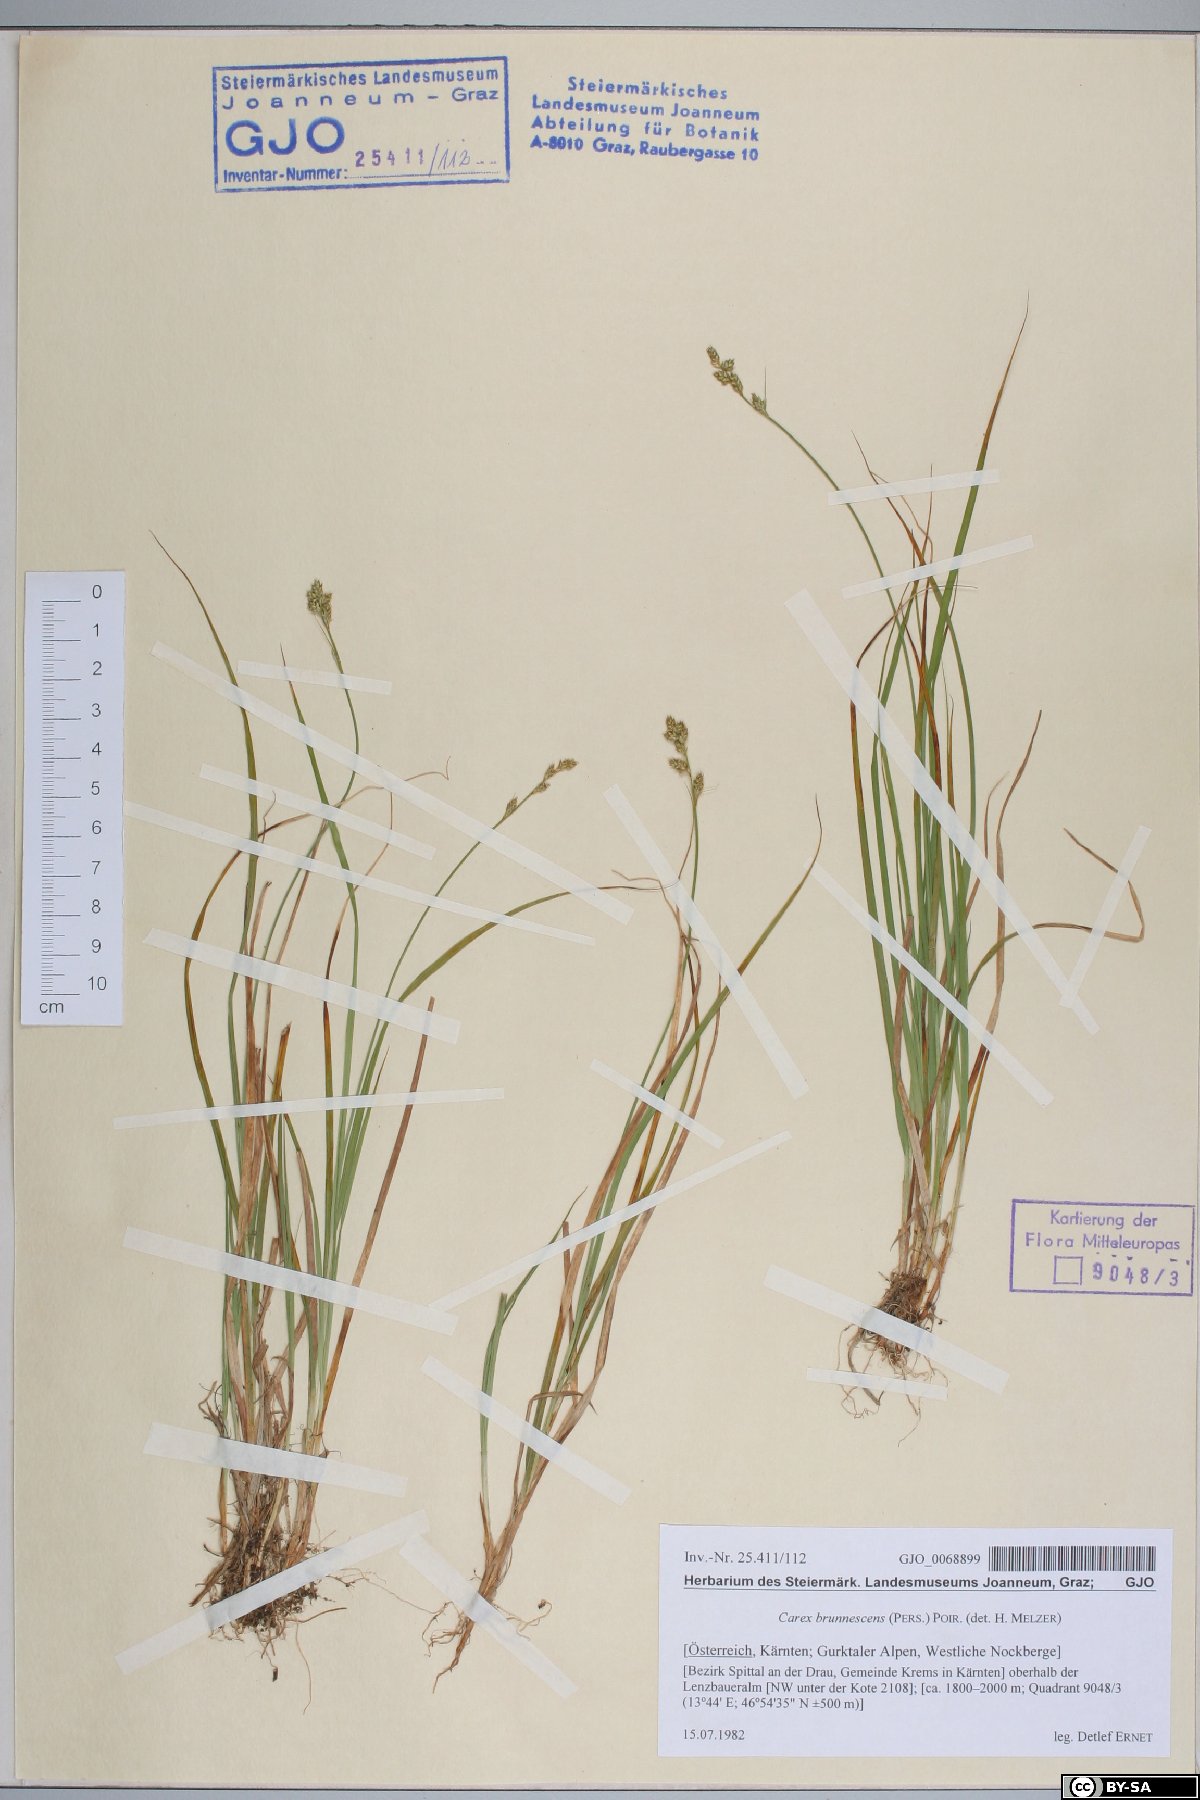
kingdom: Plantae
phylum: Tracheophyta
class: Liliopsida
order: Poales
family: Cyperaceae
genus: Carex
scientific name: Carex brunnescens
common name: Brown sedge
